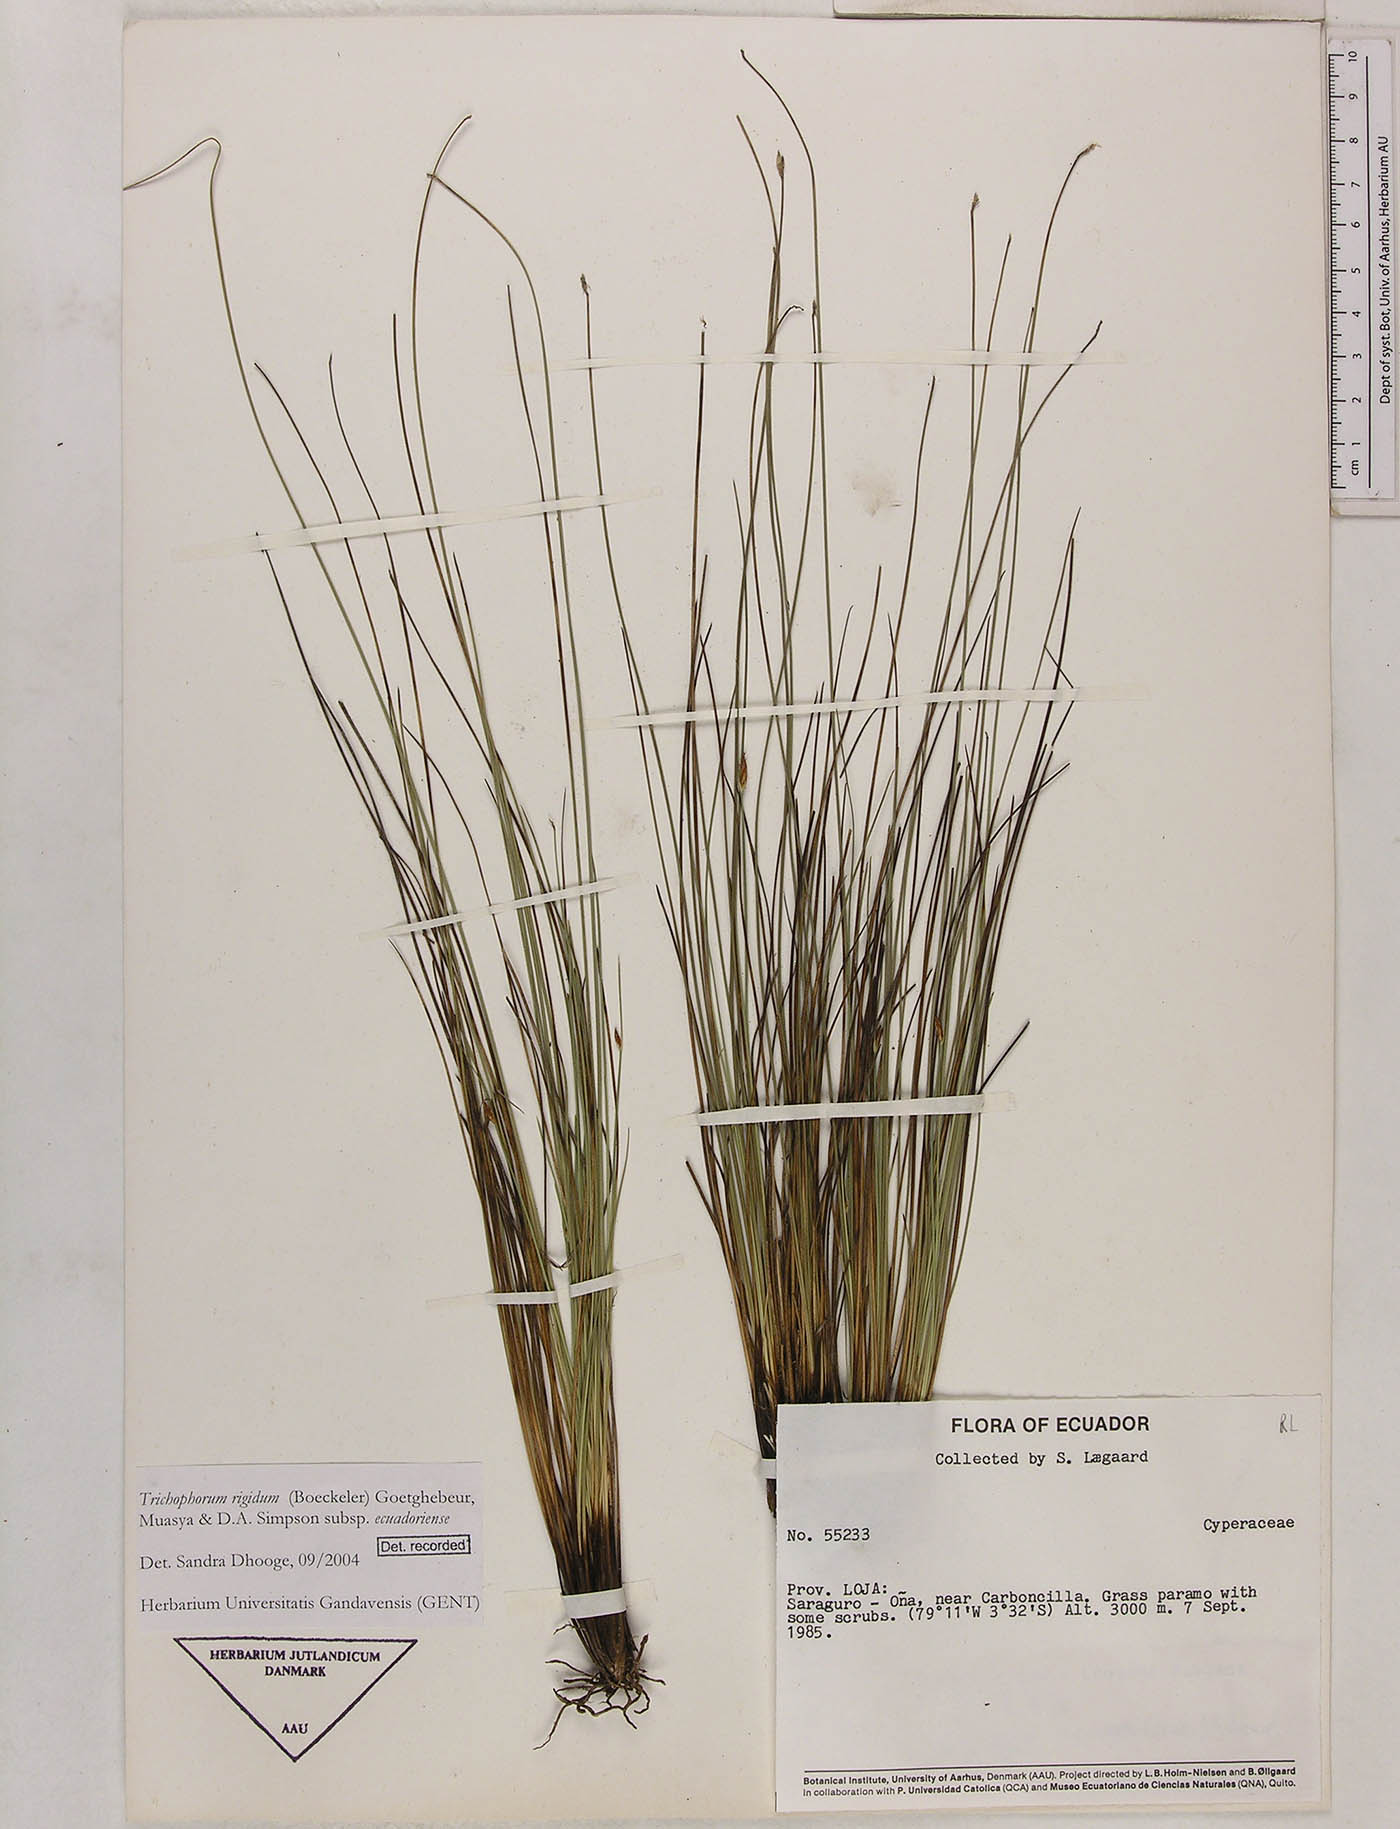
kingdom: Plantae
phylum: Tracheophyta
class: Liliopsida
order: Poales
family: Cyperaceae
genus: Trichophorum
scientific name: Trichophorum rigidum
